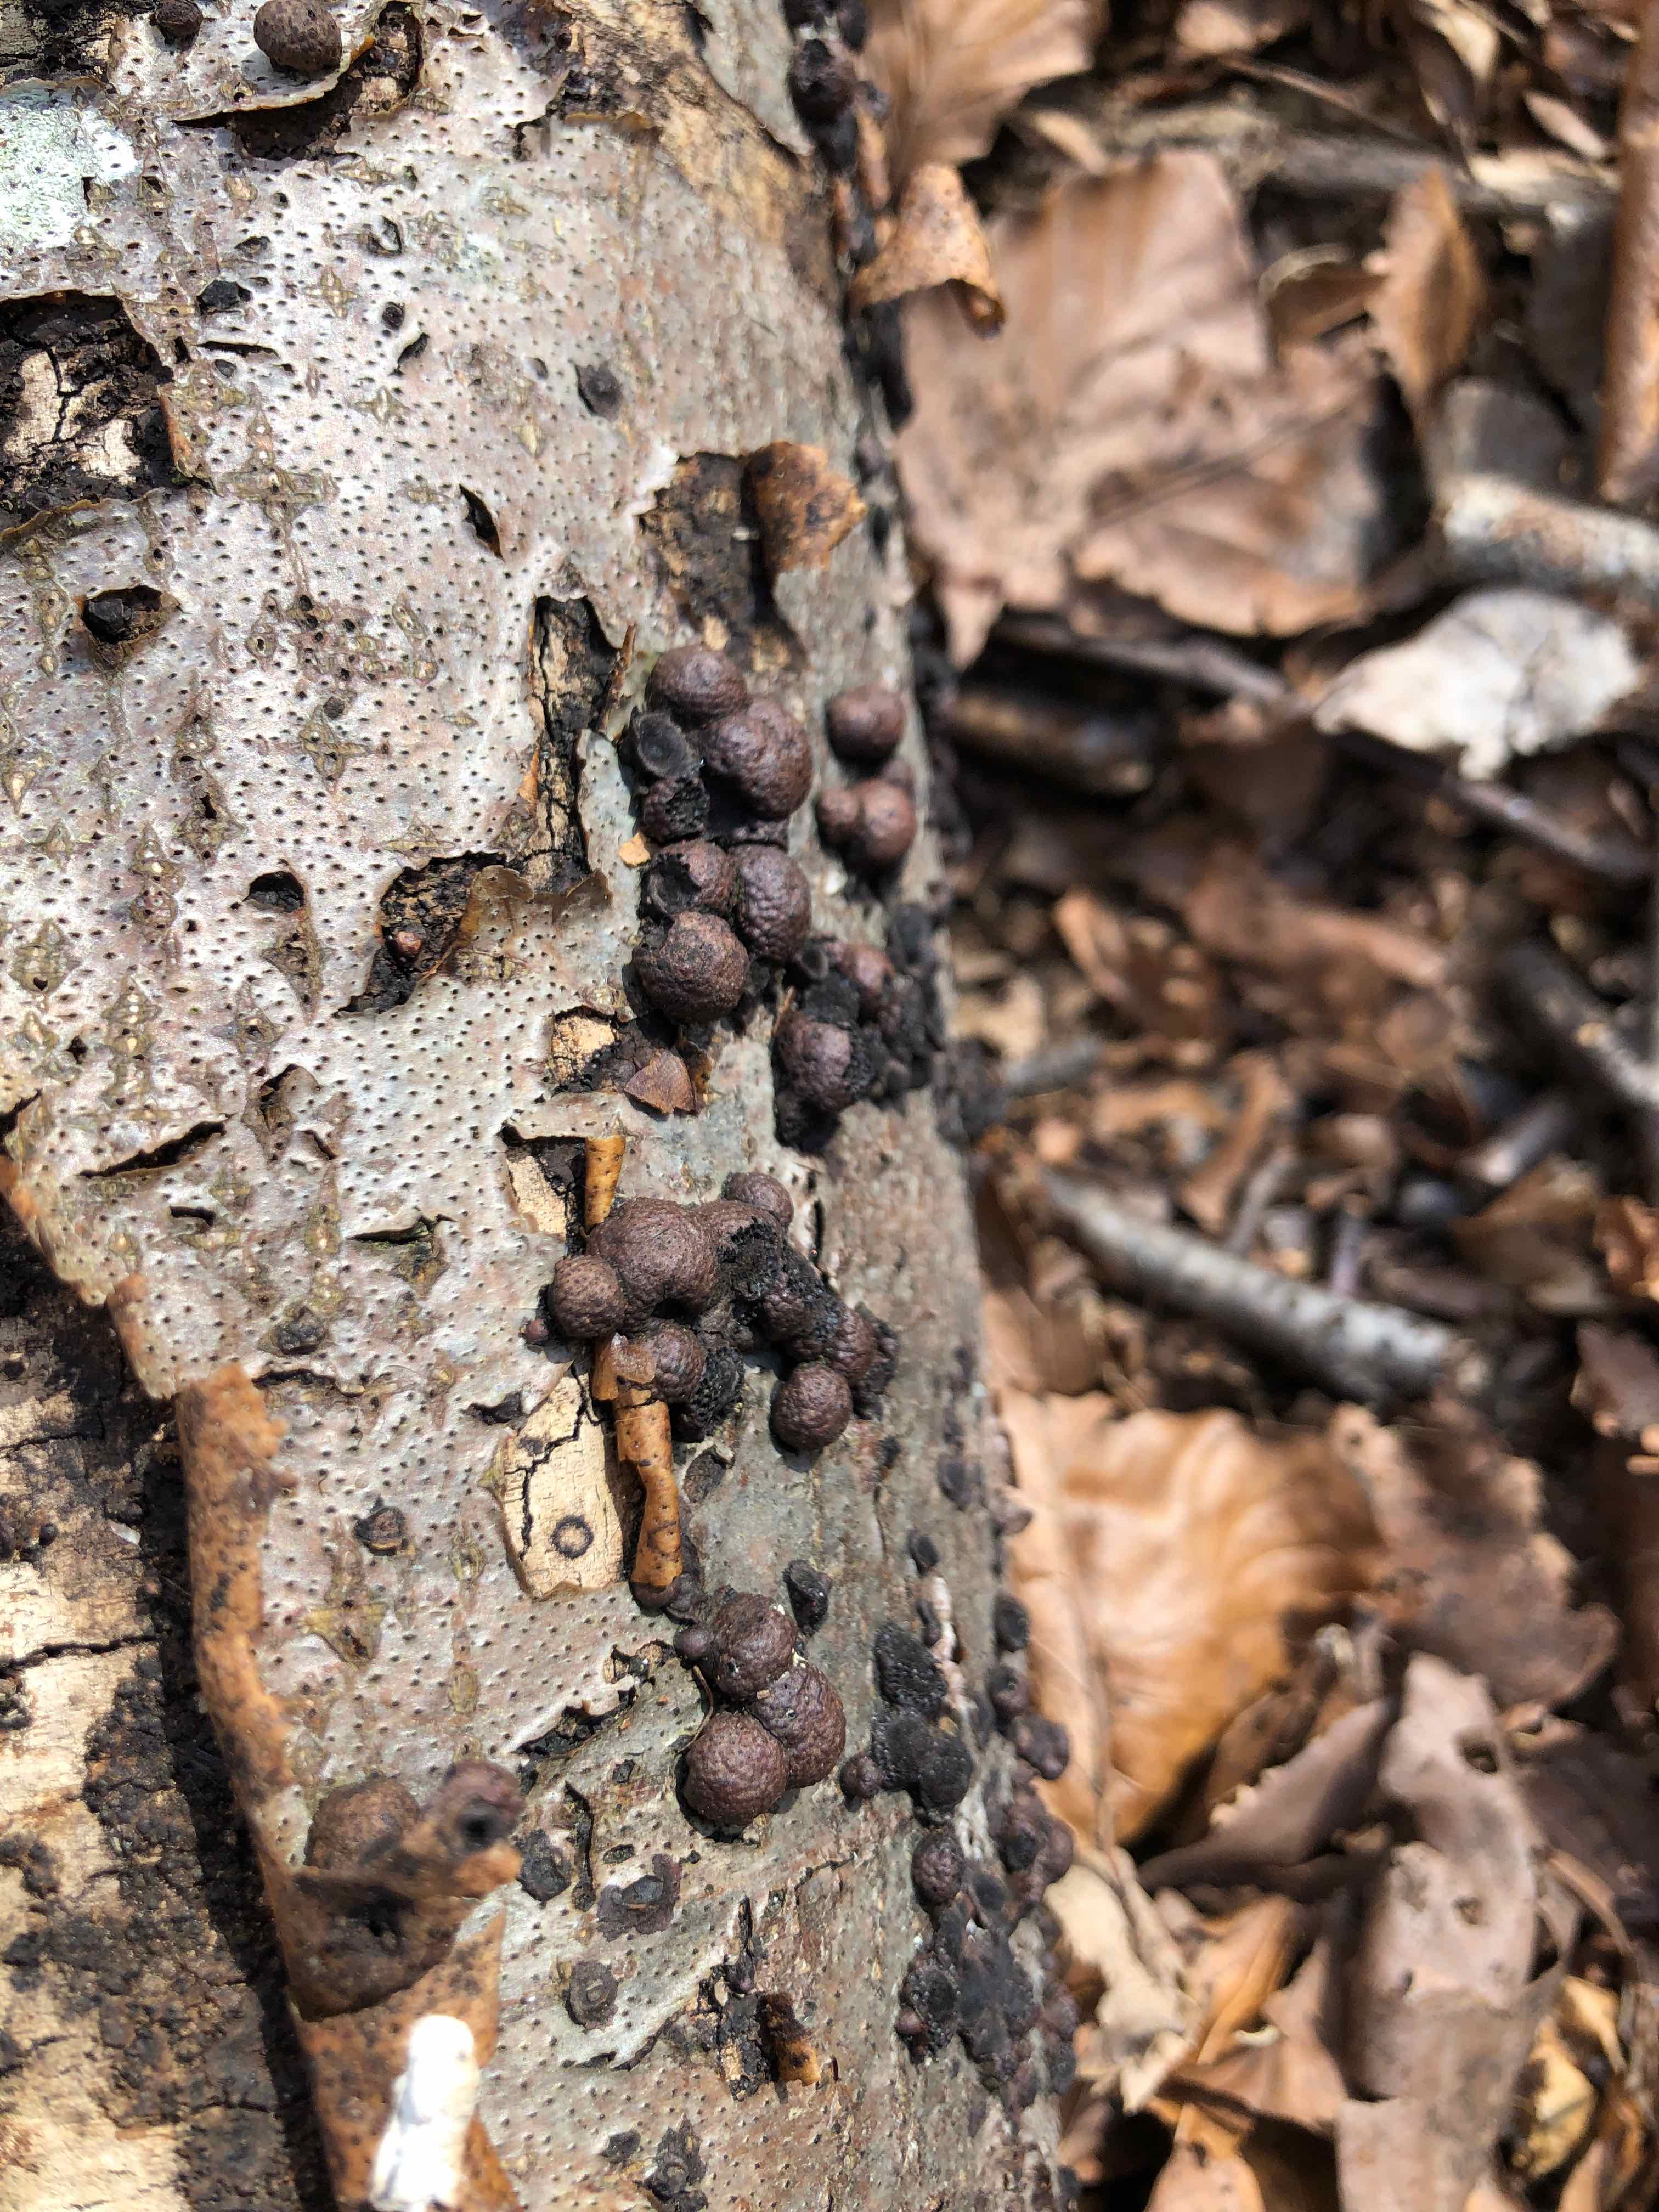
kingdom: Fungi
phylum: Ascomycota
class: Sordariomycetes
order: Xylariales
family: Hypoxylaceae
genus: Hypoxylon
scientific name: Hypoxylon fragiforme
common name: kuljordbær
